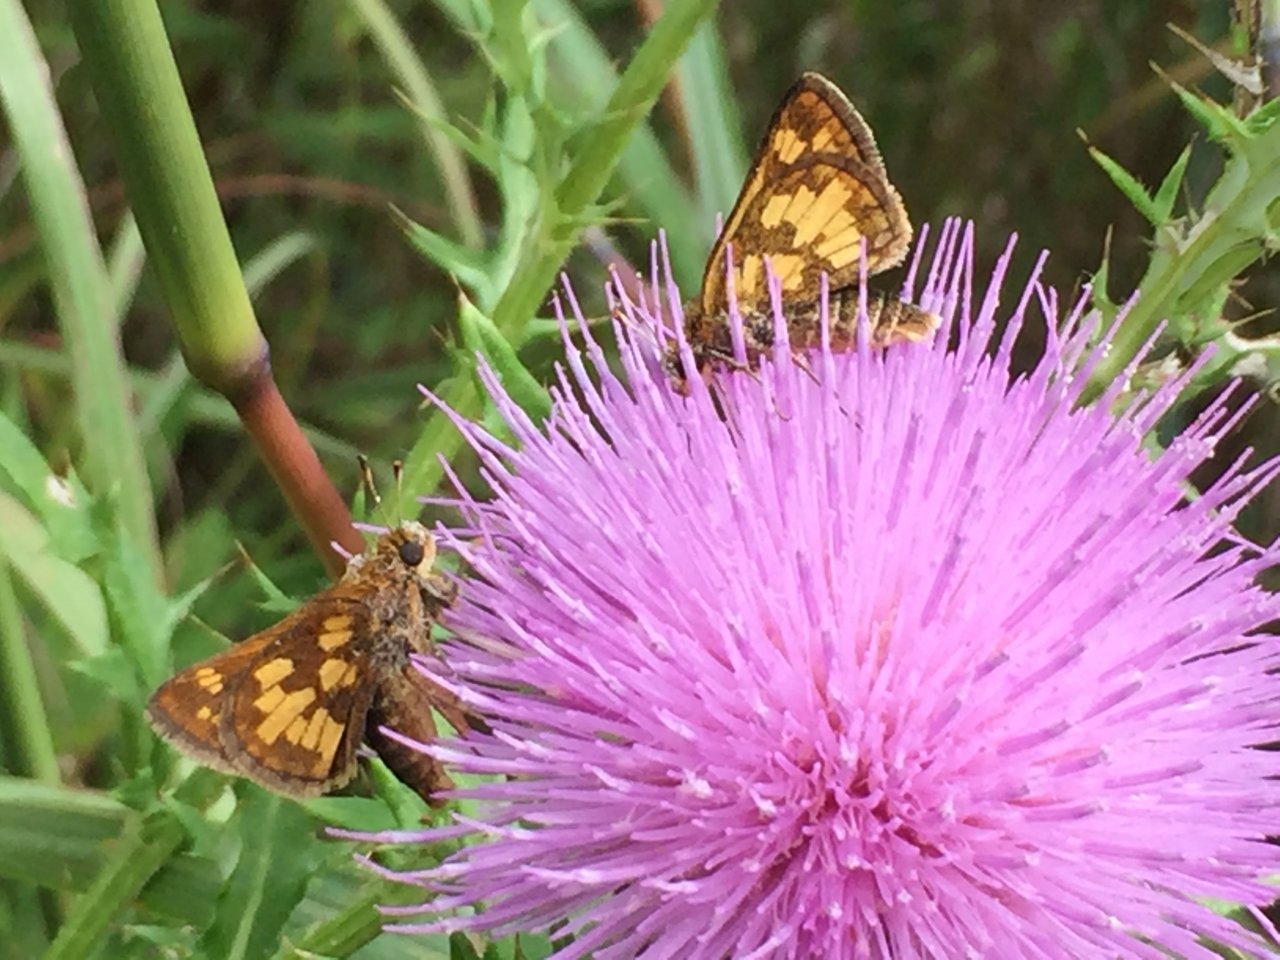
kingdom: Animalia
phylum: Arthropoda
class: Insecta
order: Lepidoptera
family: Hesperiidae
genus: Polites
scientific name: Polites coras
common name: Peck's Skipper
